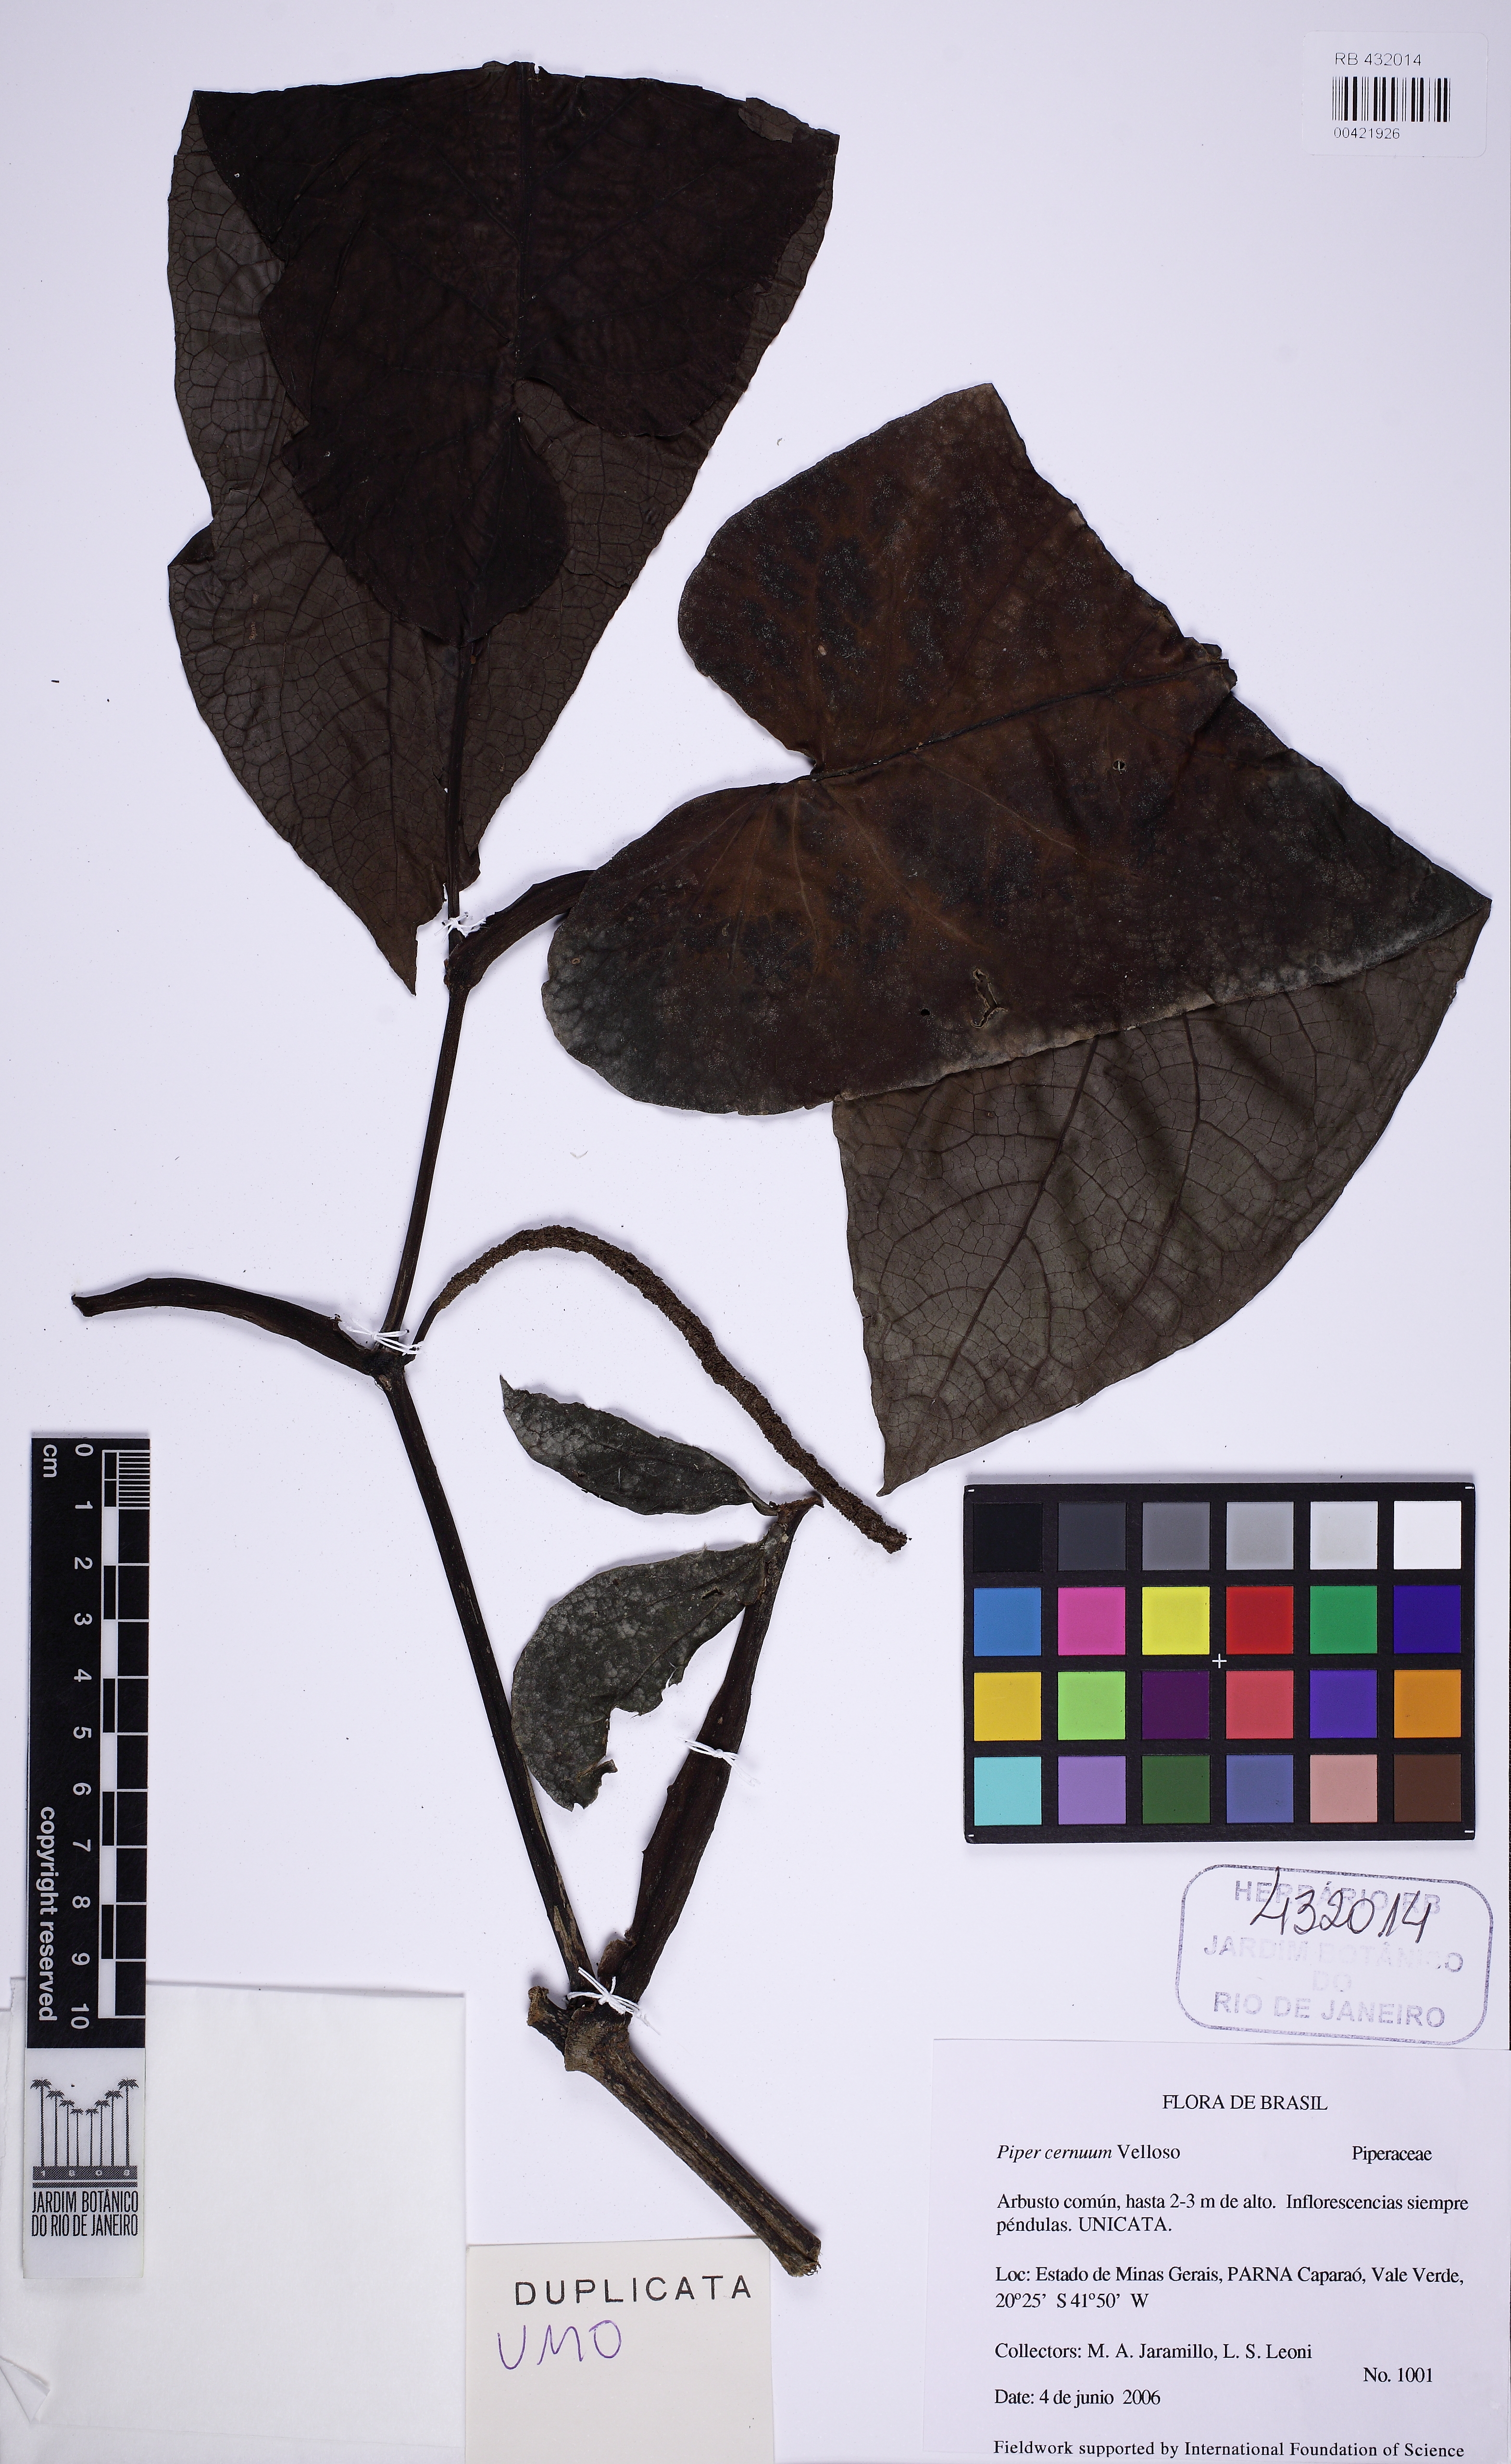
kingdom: Plantae
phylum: Tracheophyta
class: Magnoliopsida
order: Piperales
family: Piperaceae
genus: Piper
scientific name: Piper cernuum
